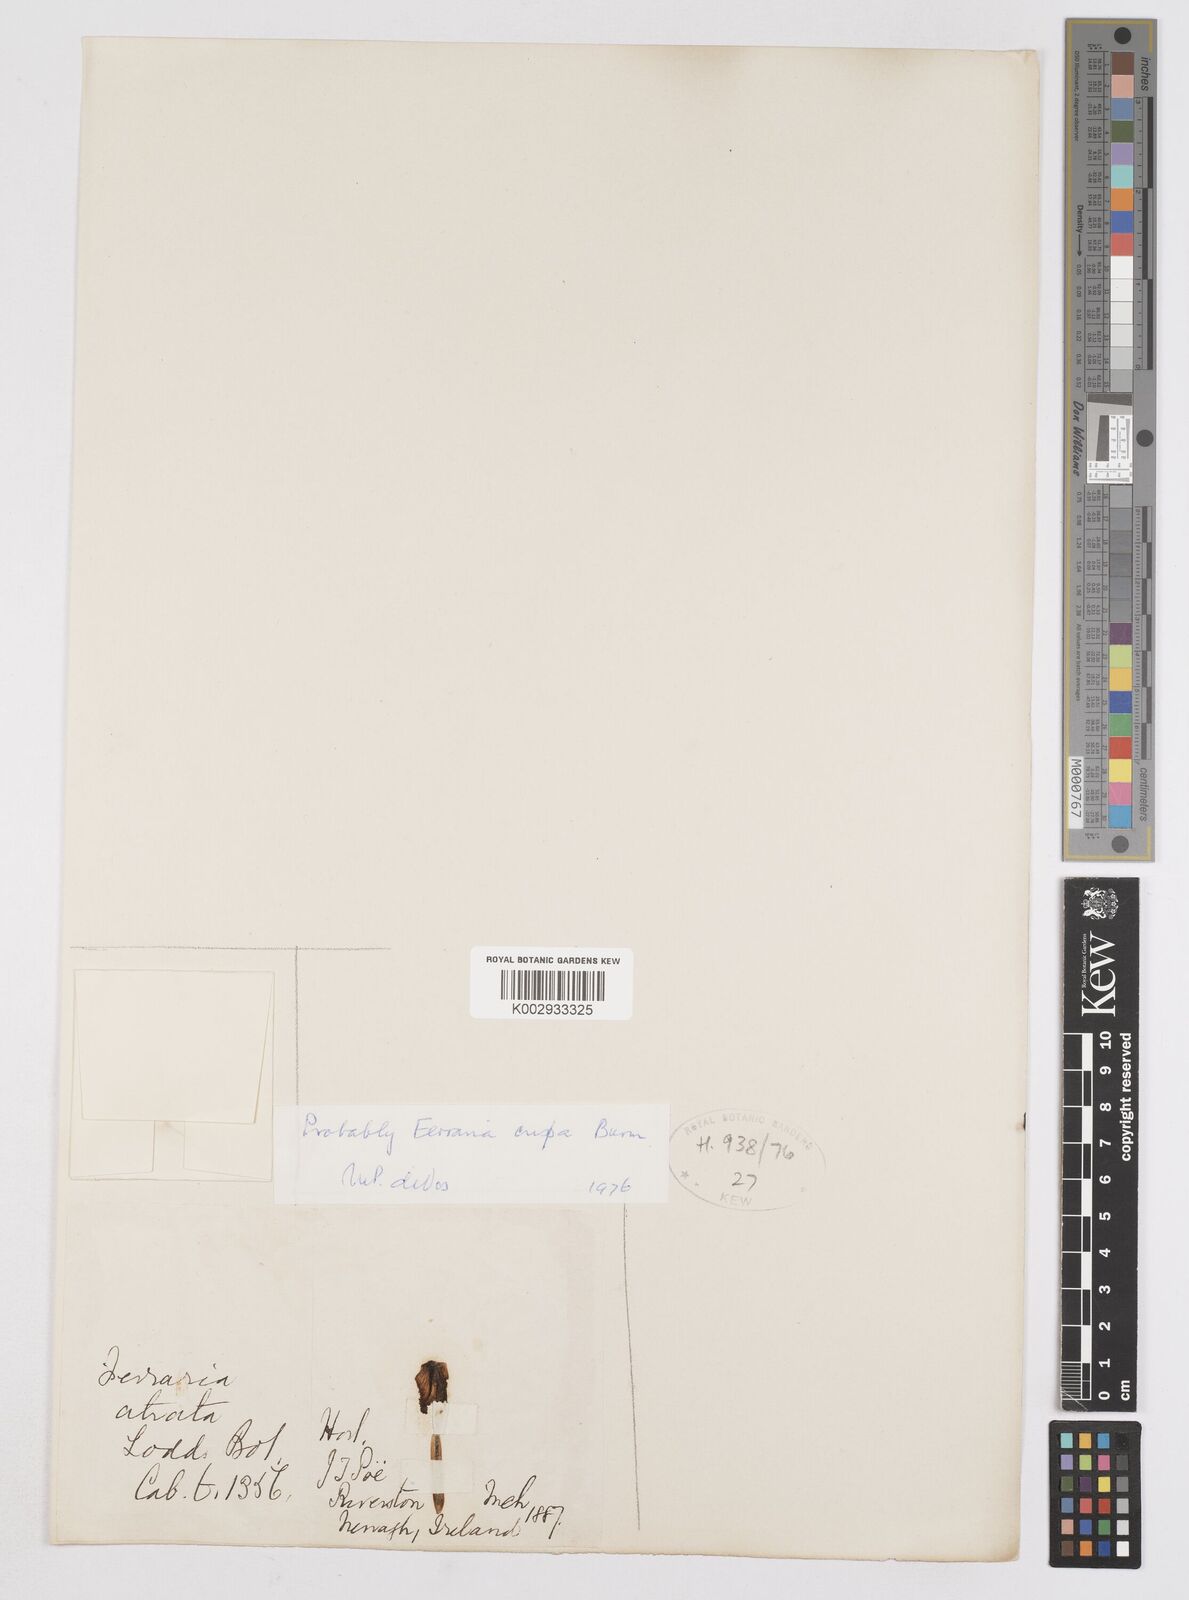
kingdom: Plantae
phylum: Tracheophyta
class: Liliopsida
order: Asparagales
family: Iridaceae
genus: Ferraria
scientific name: Ferraria crispa
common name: Black-flag
